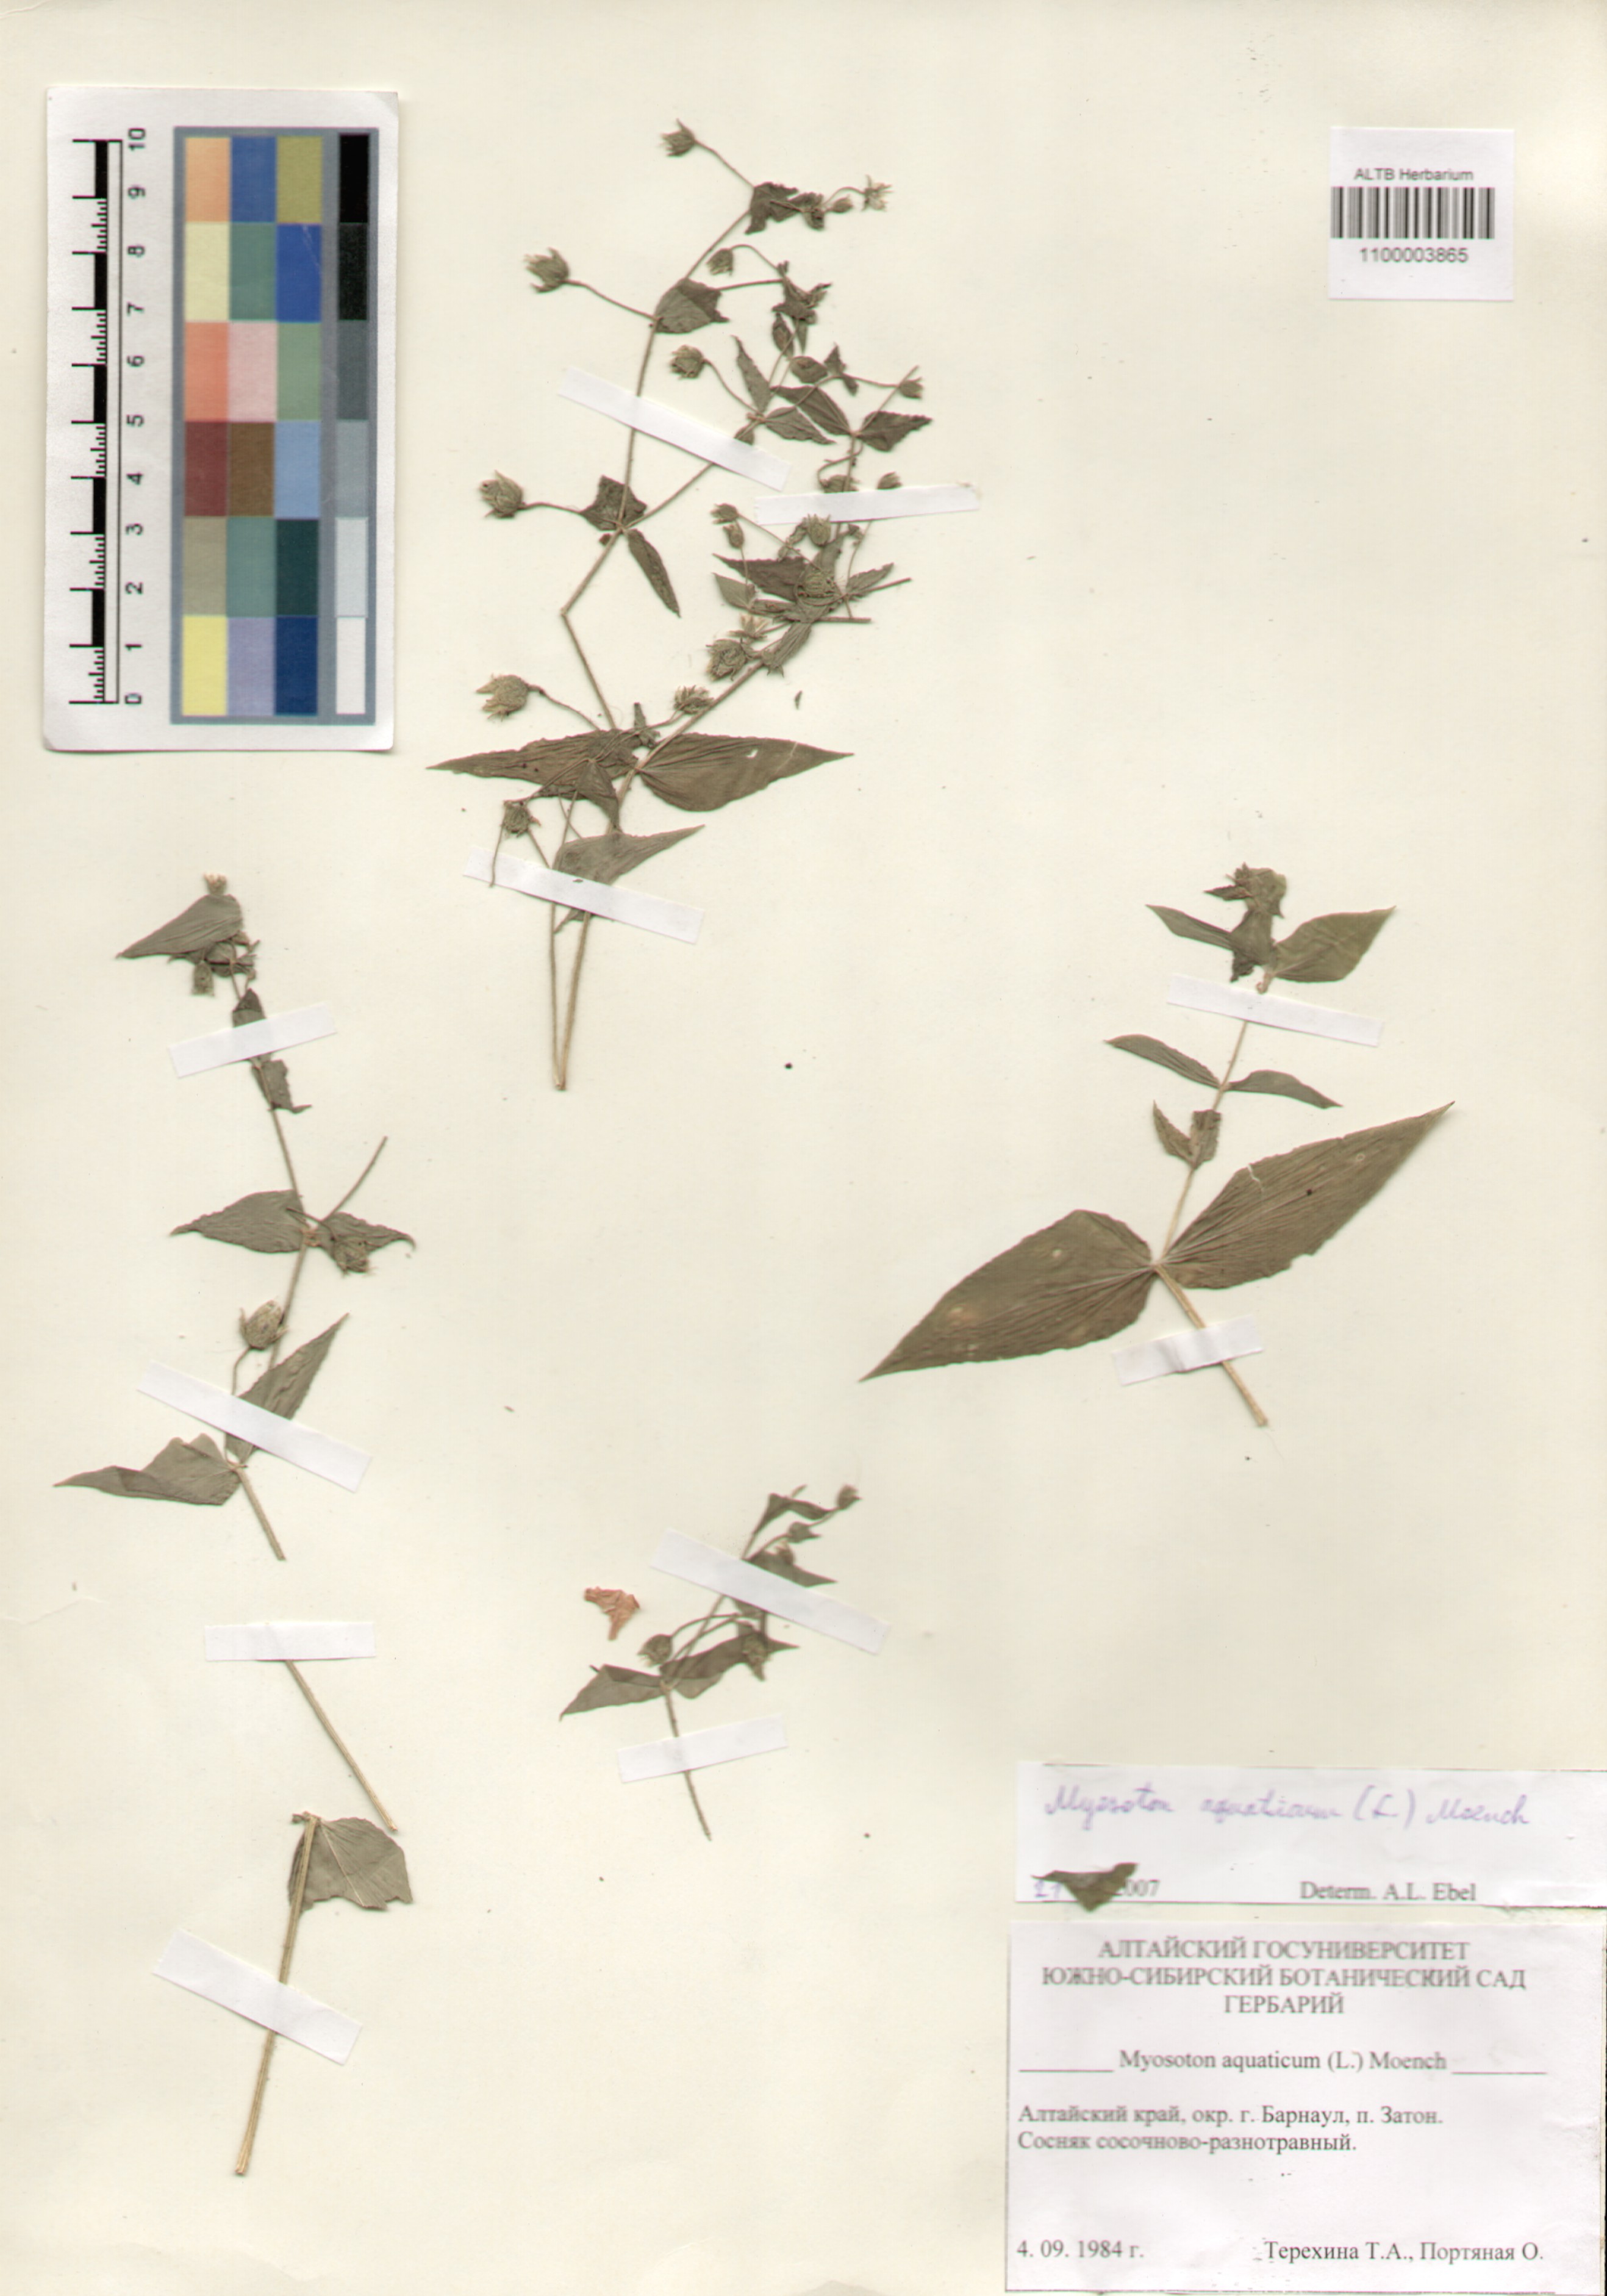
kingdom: Plantae
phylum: Tracheophyta
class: Magnoliopsida
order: Caryophyllales
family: Caryophyllaceae
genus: Stellaria
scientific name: Stellaria aquatica
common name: Water chickweed
